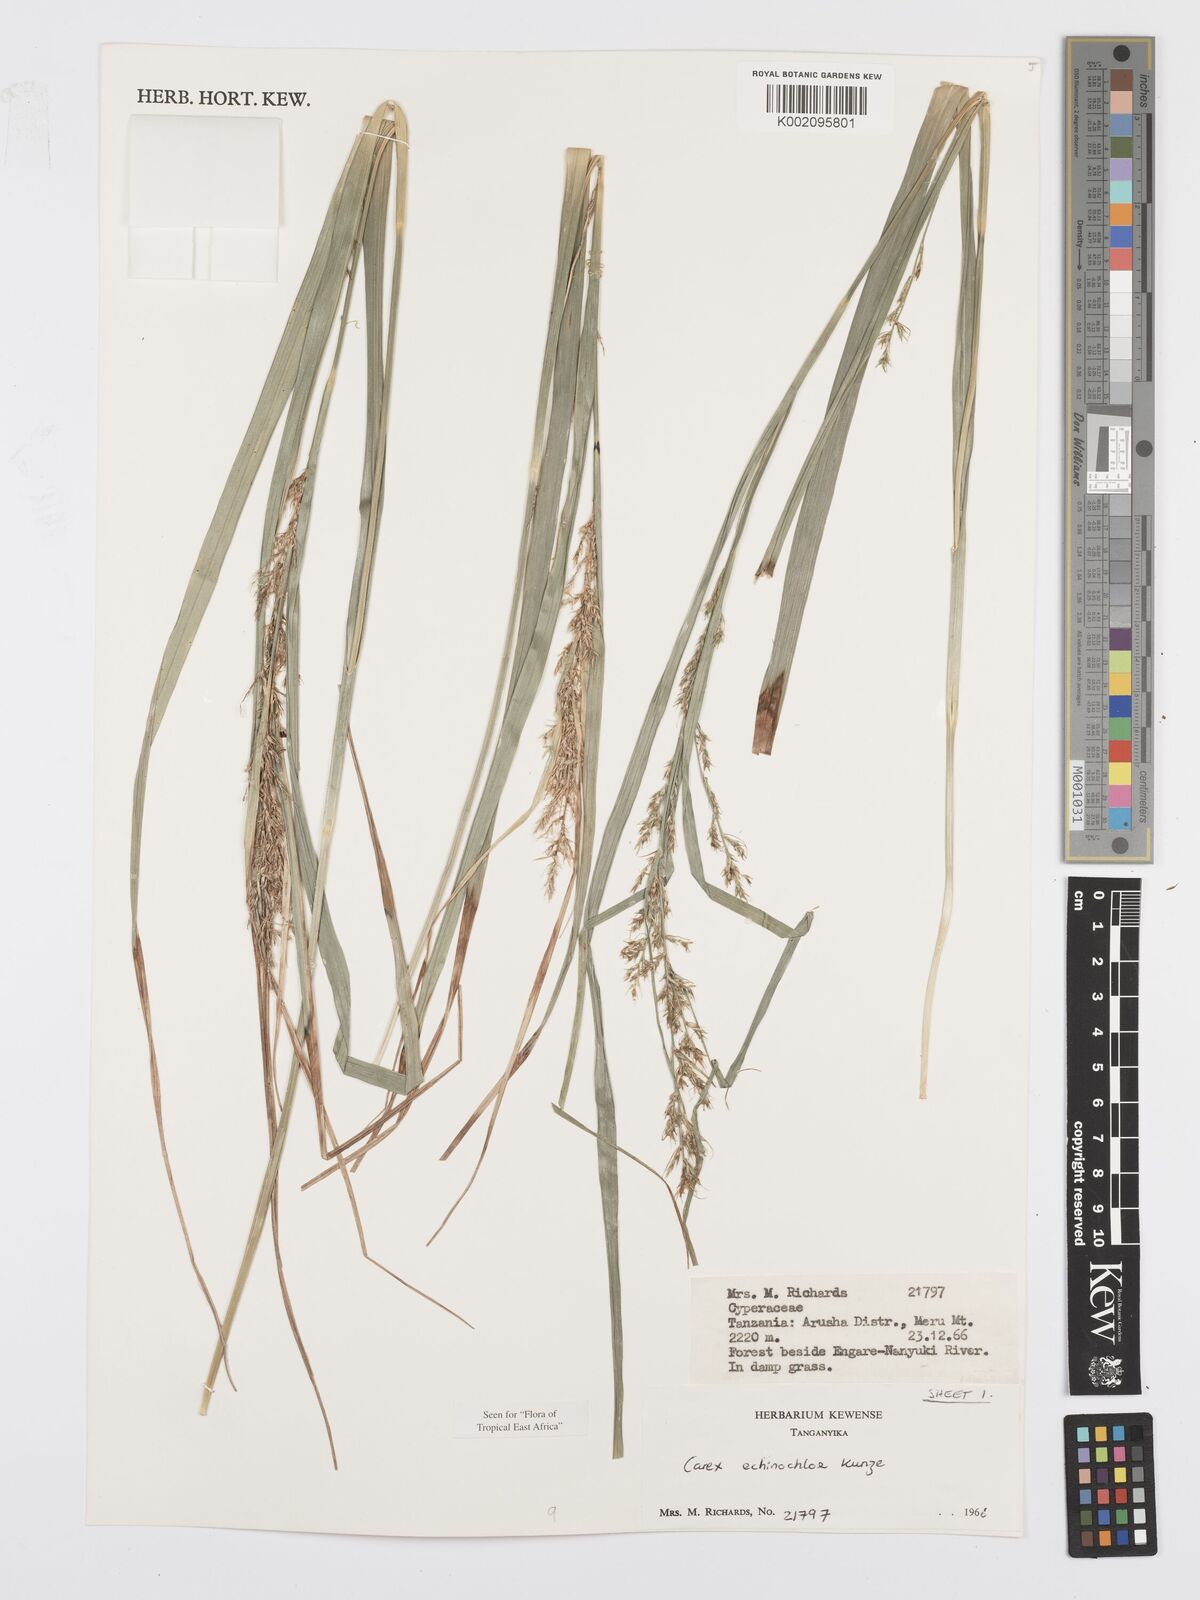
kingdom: Plantae
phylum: Tracheophyta
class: Liliopsida
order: Poales
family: Cyperaceae
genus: Carex
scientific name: Carex echinochloe
